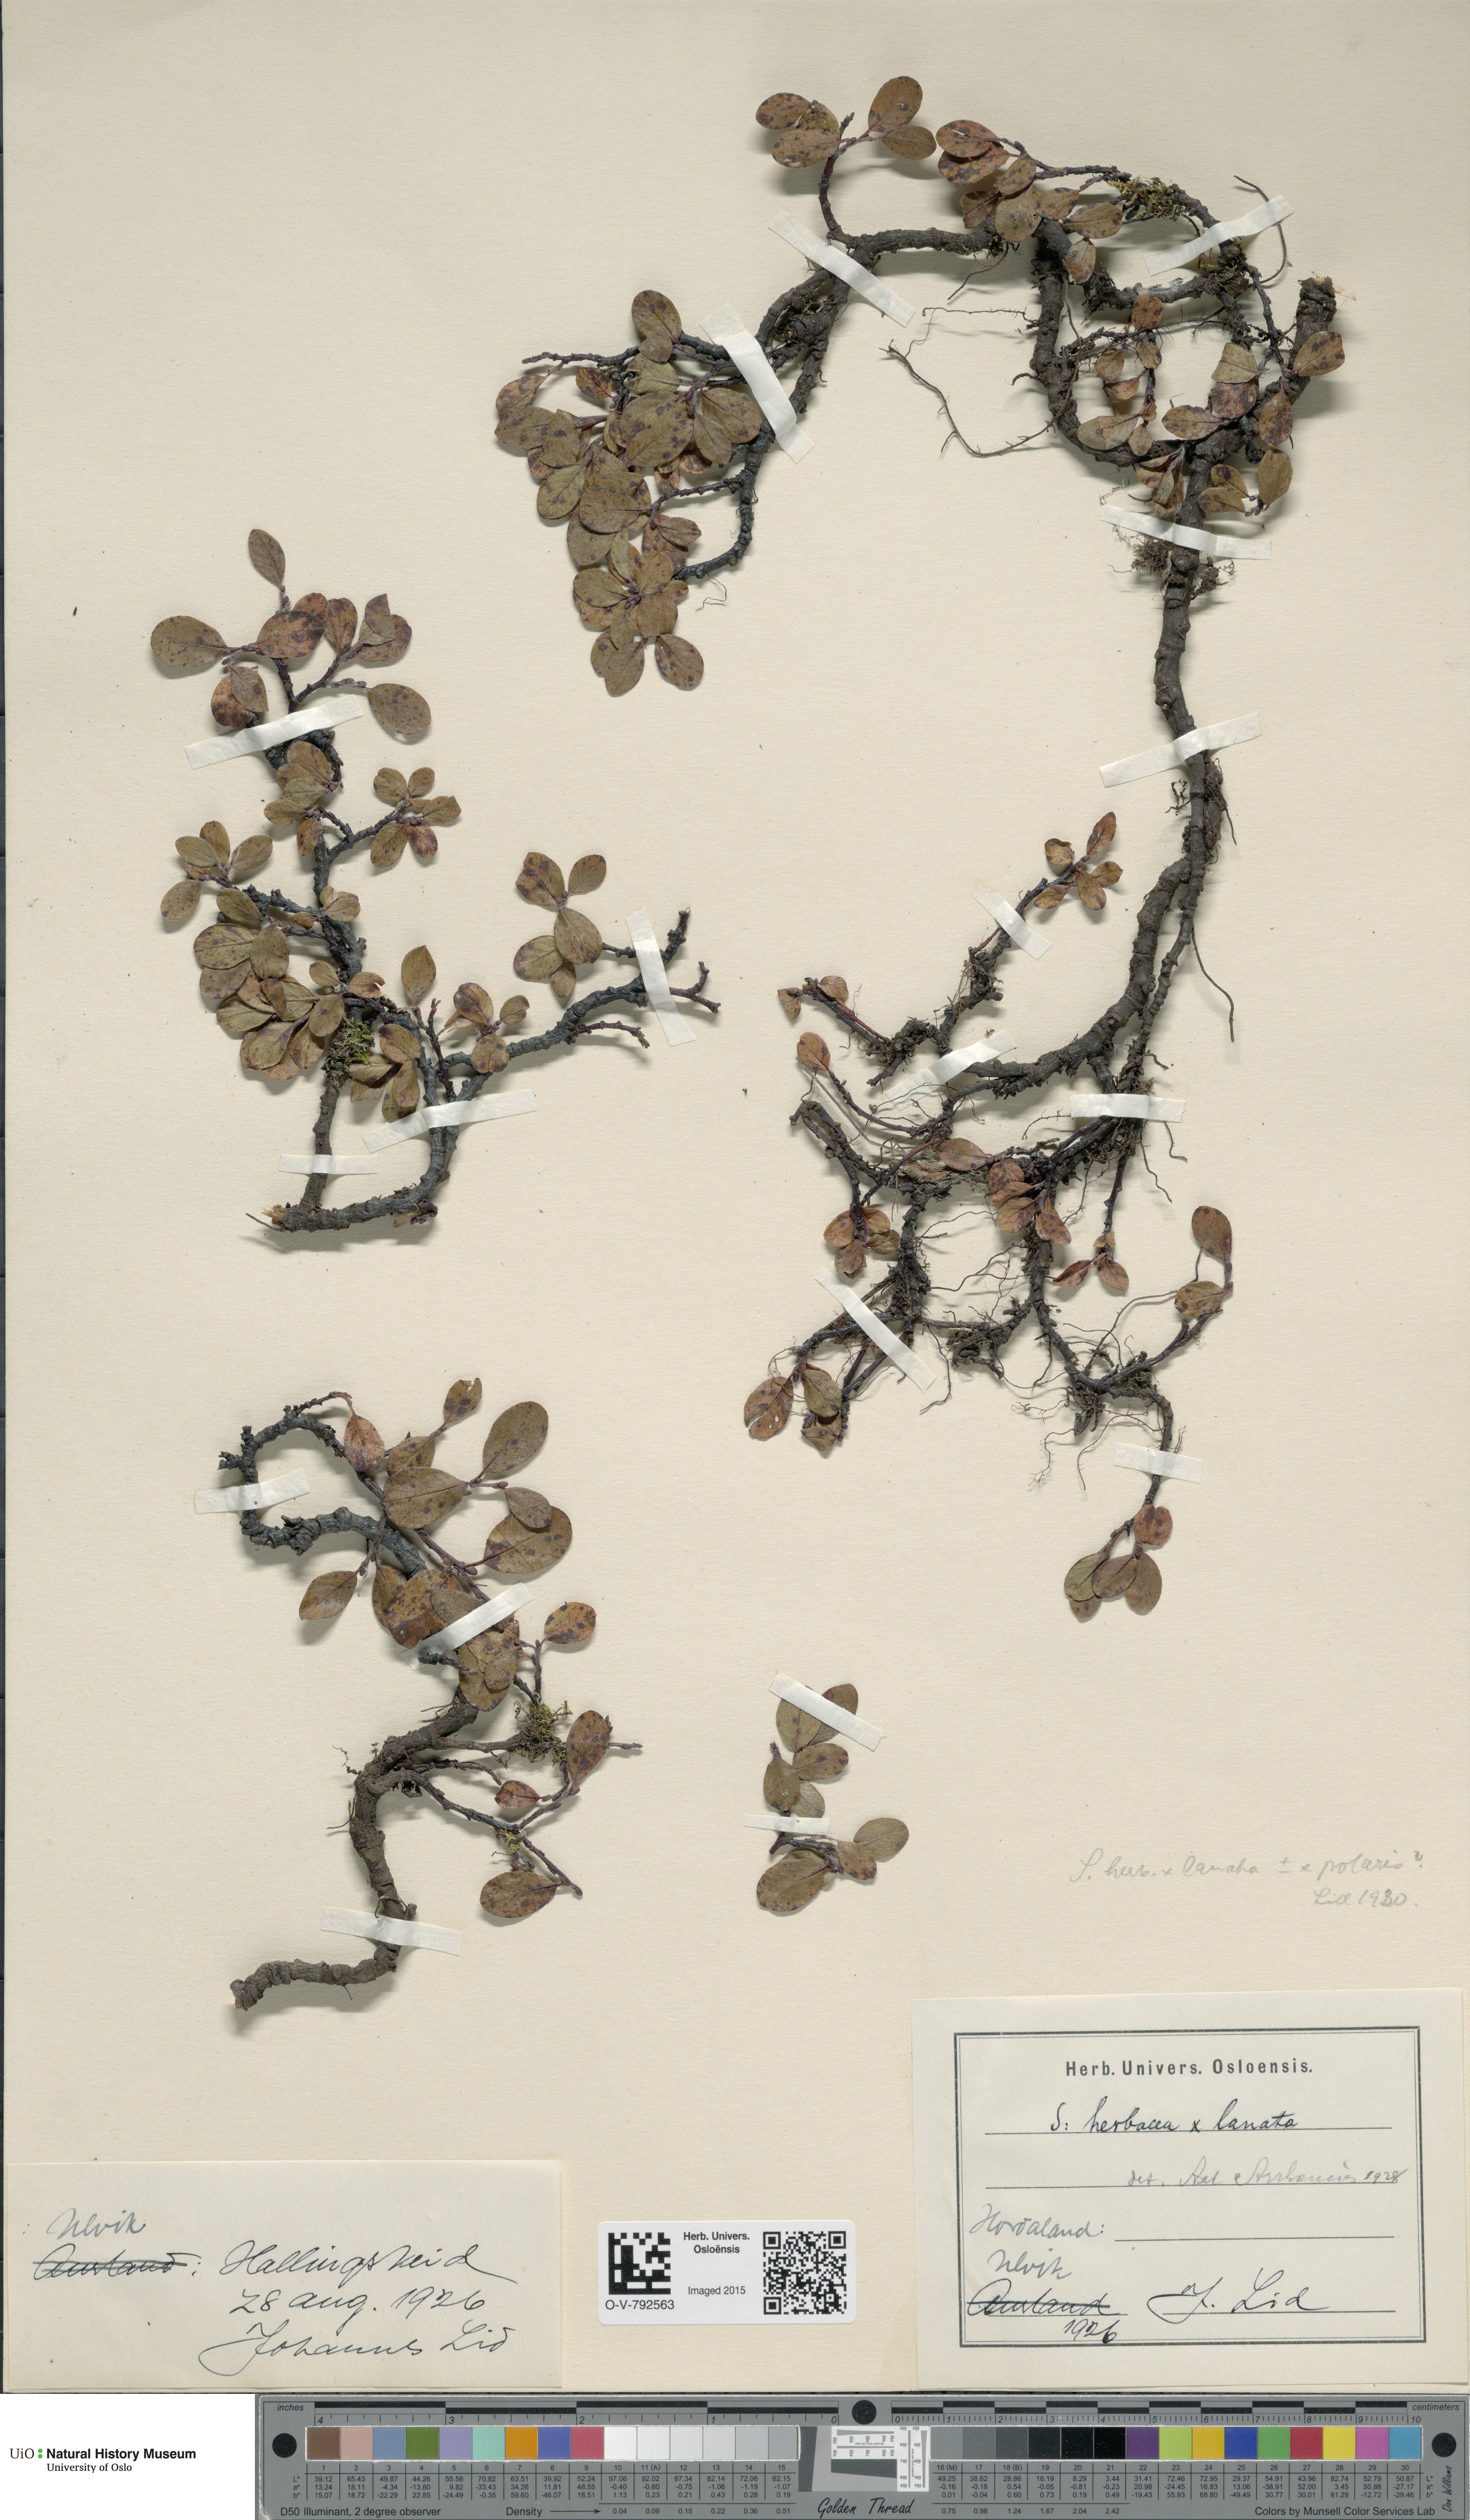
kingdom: Plantae
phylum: Tracheophyta
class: Magnoliopsida
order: Malpighiales
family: Salicaceae
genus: Salix
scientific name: Salix
